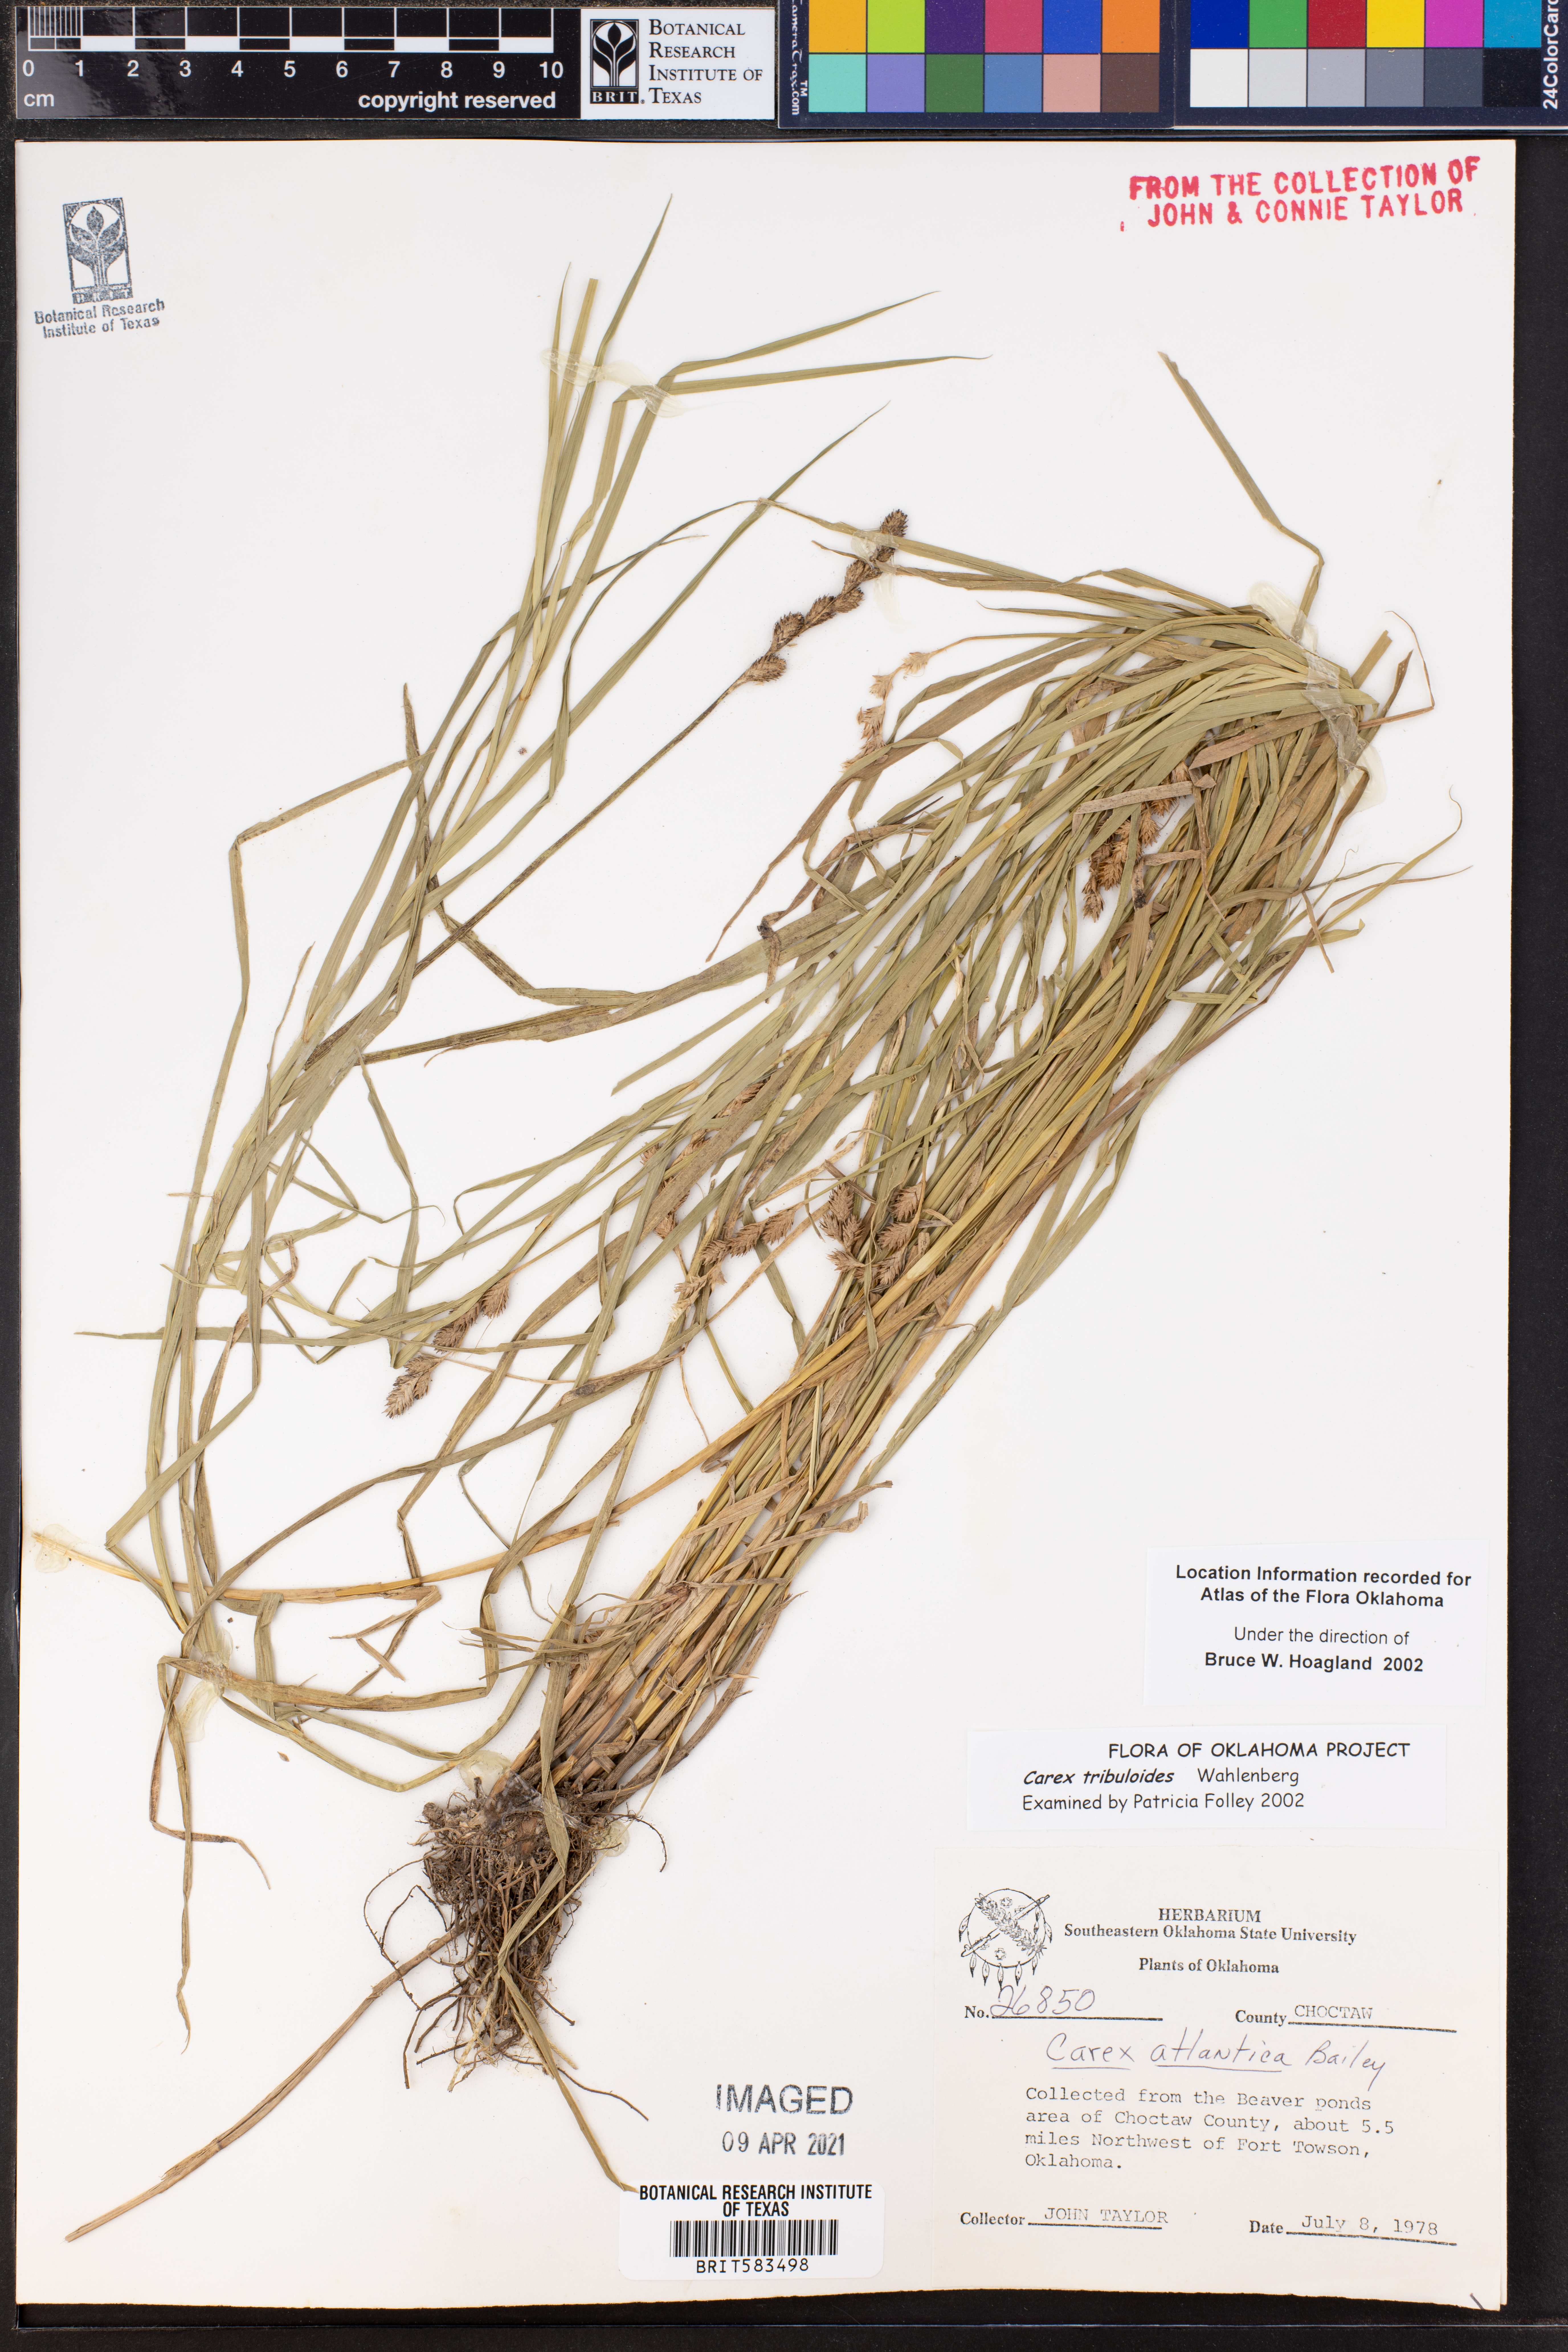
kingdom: Plantae
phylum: Tracheophyta
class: Liliopsida
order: Poales
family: Cyperaceae
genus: Carex
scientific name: Carex tribuloides
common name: Blunt broom sedge
